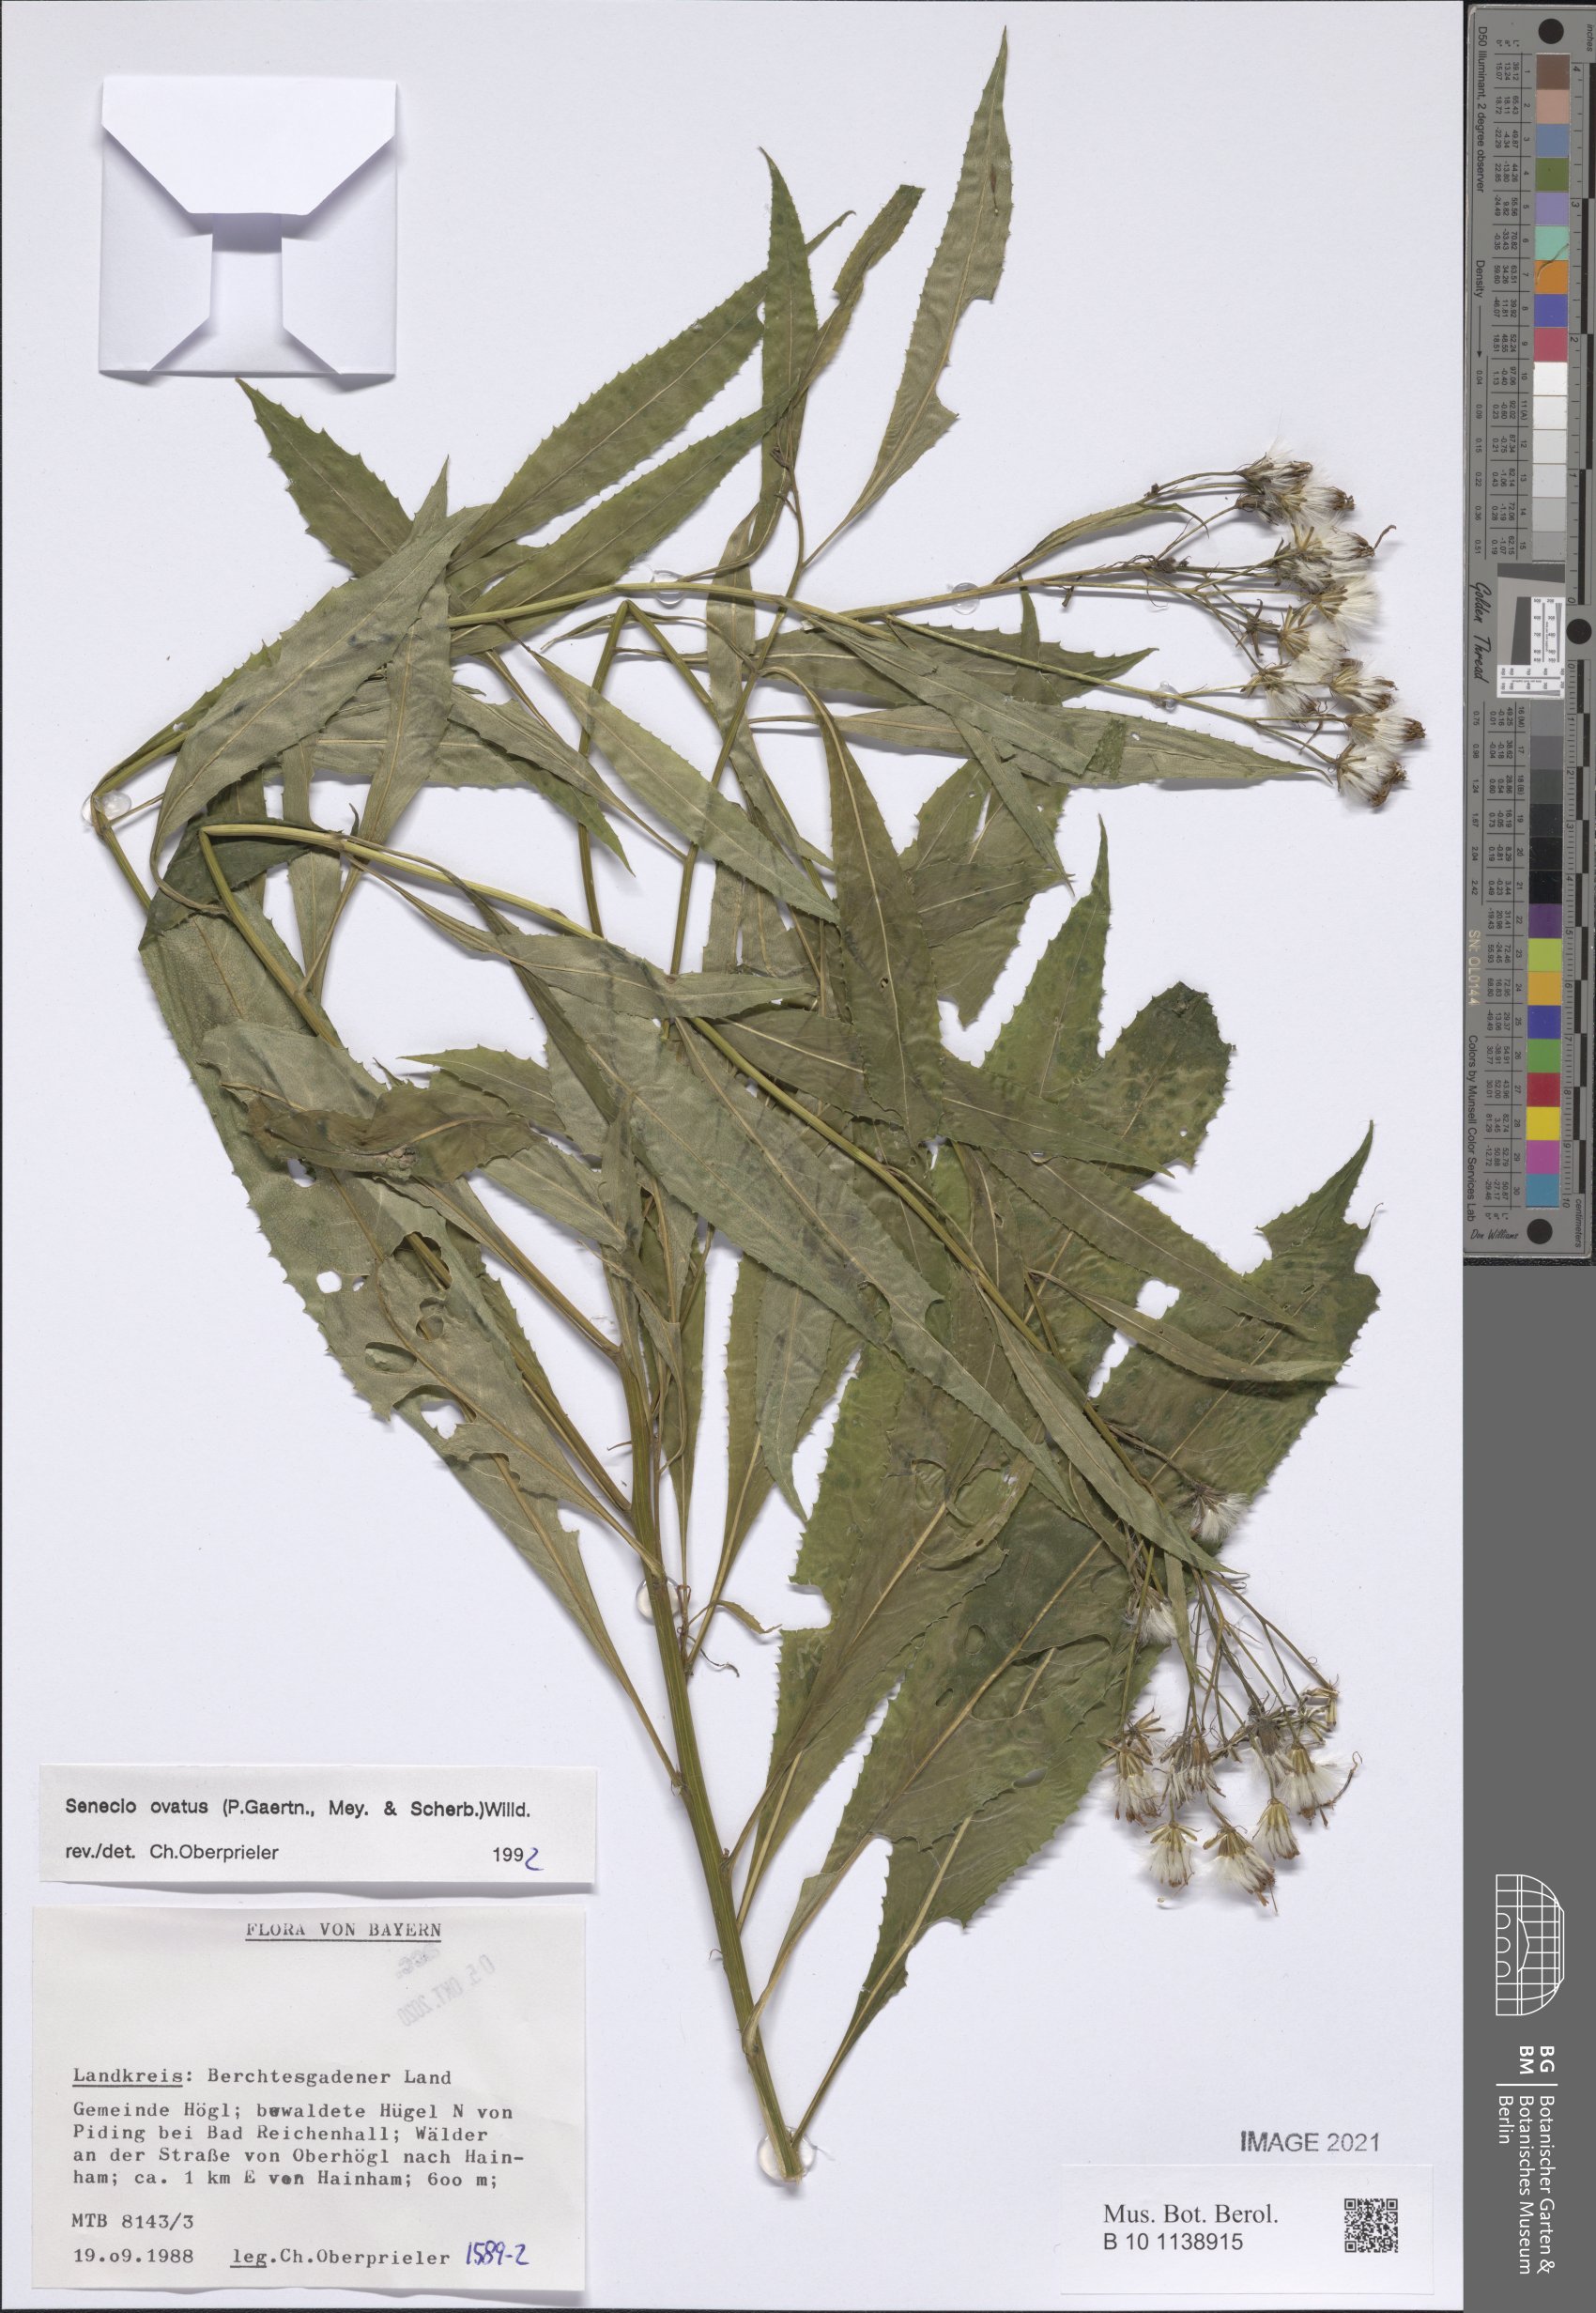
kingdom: Plantae
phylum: Tracheophyta
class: Magnoliopsida
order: Asterales
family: Asteraceae
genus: Senecio
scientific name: Senecio ovatus
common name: Wood ragwort
